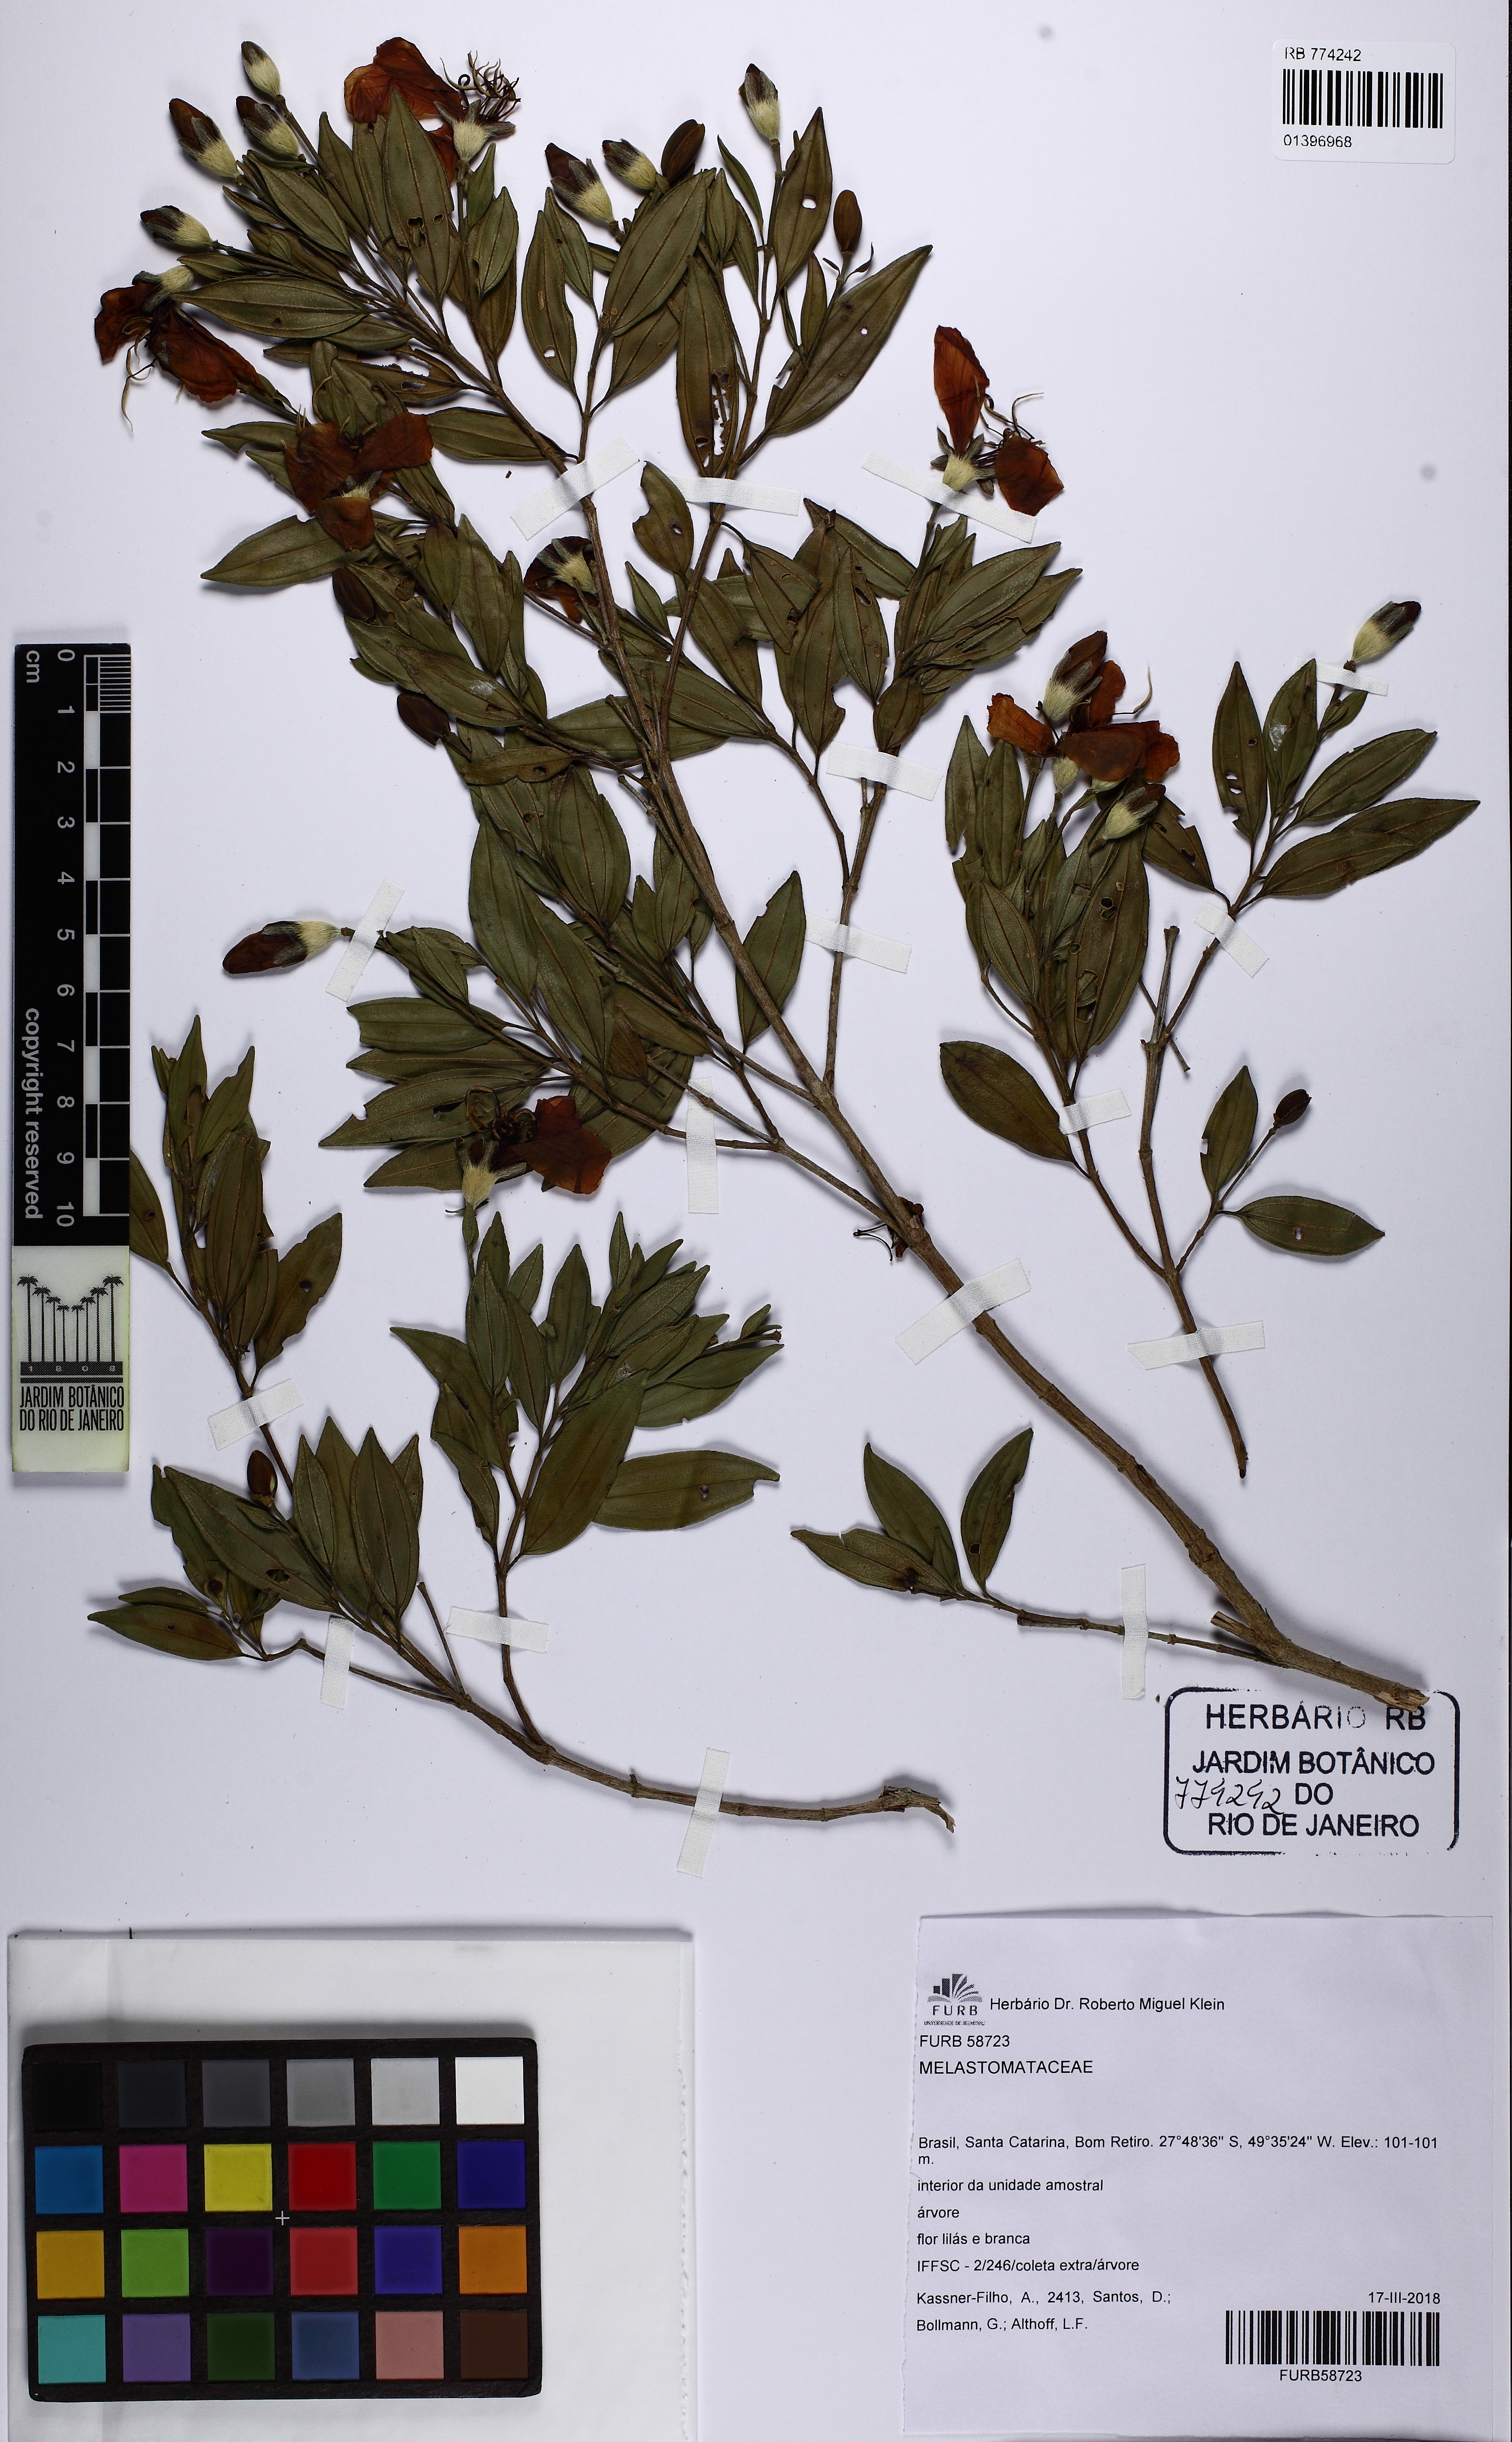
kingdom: Plantae
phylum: Tracheophyta
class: Magnoliopsida
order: Myrtales
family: Melastomataceae
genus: Pleroma
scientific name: Pleroma sellowianum
